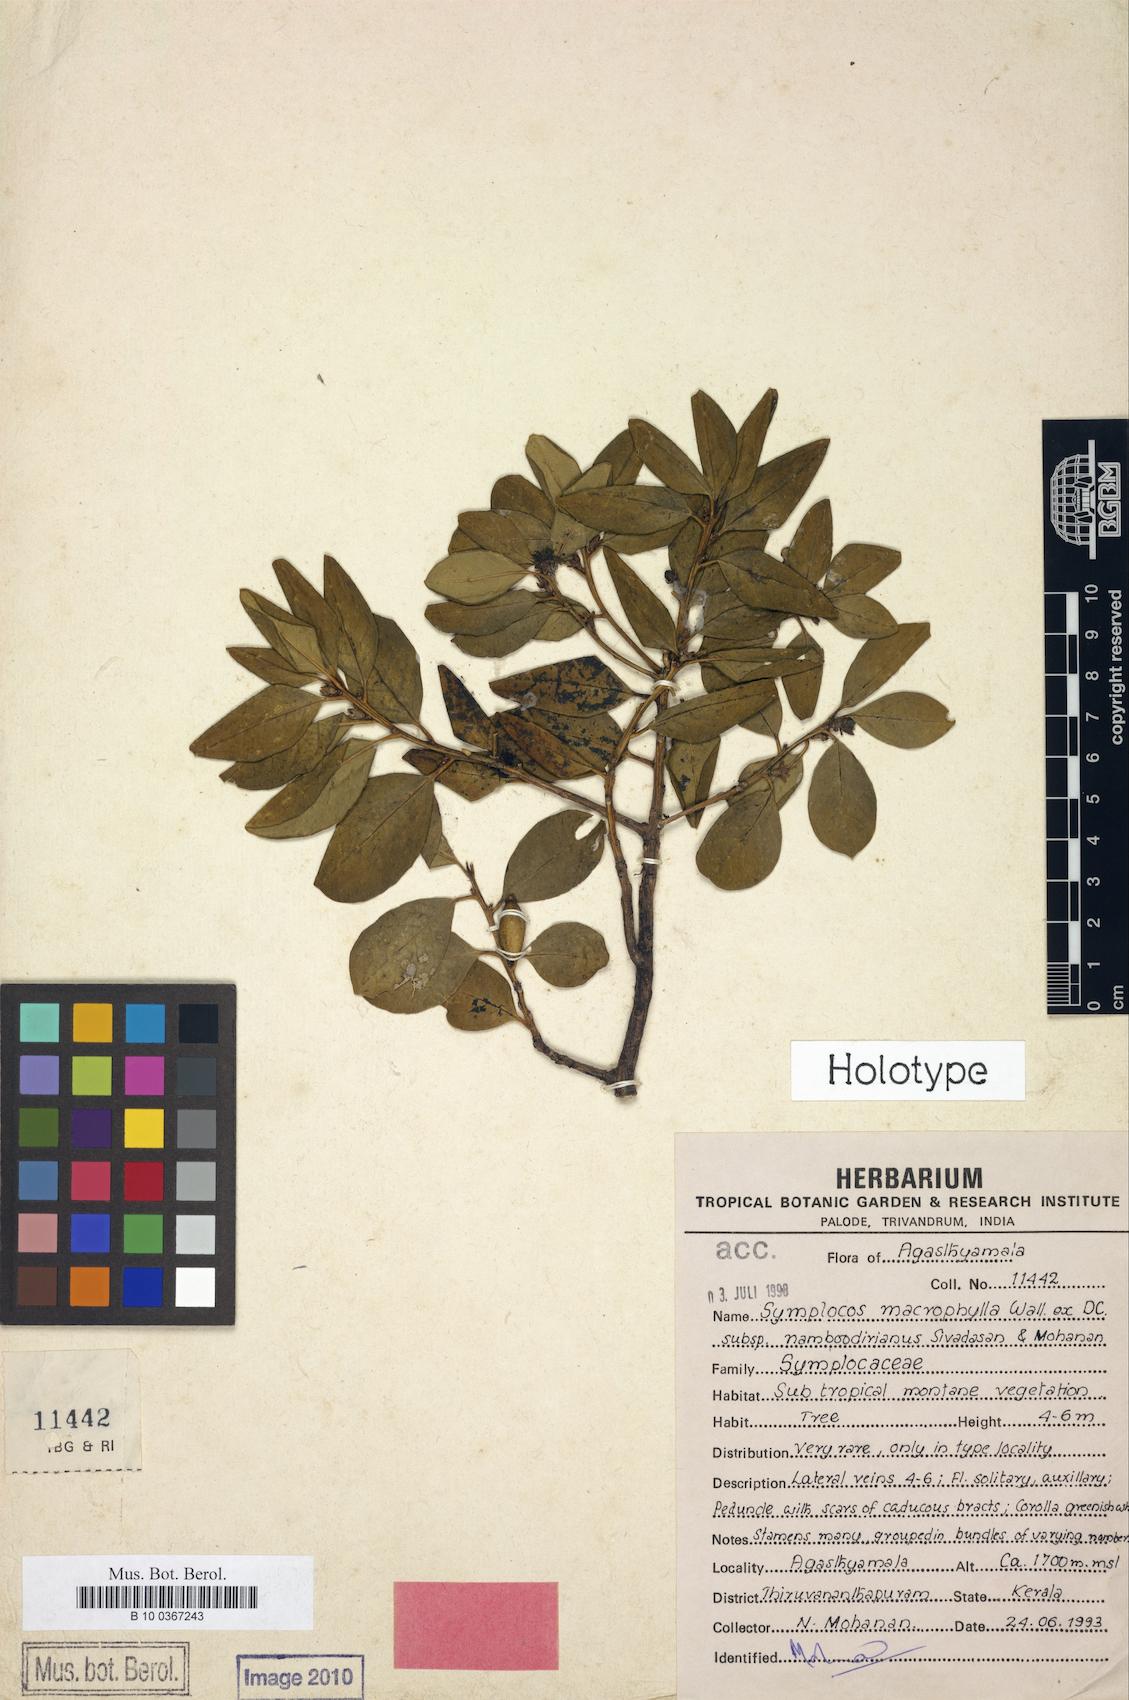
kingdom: Plantae
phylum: Tracheophyta
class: Magnoliopsida
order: Ericales
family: Symplocaceae
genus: Symplocos
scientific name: Symplocos namboodiriana
